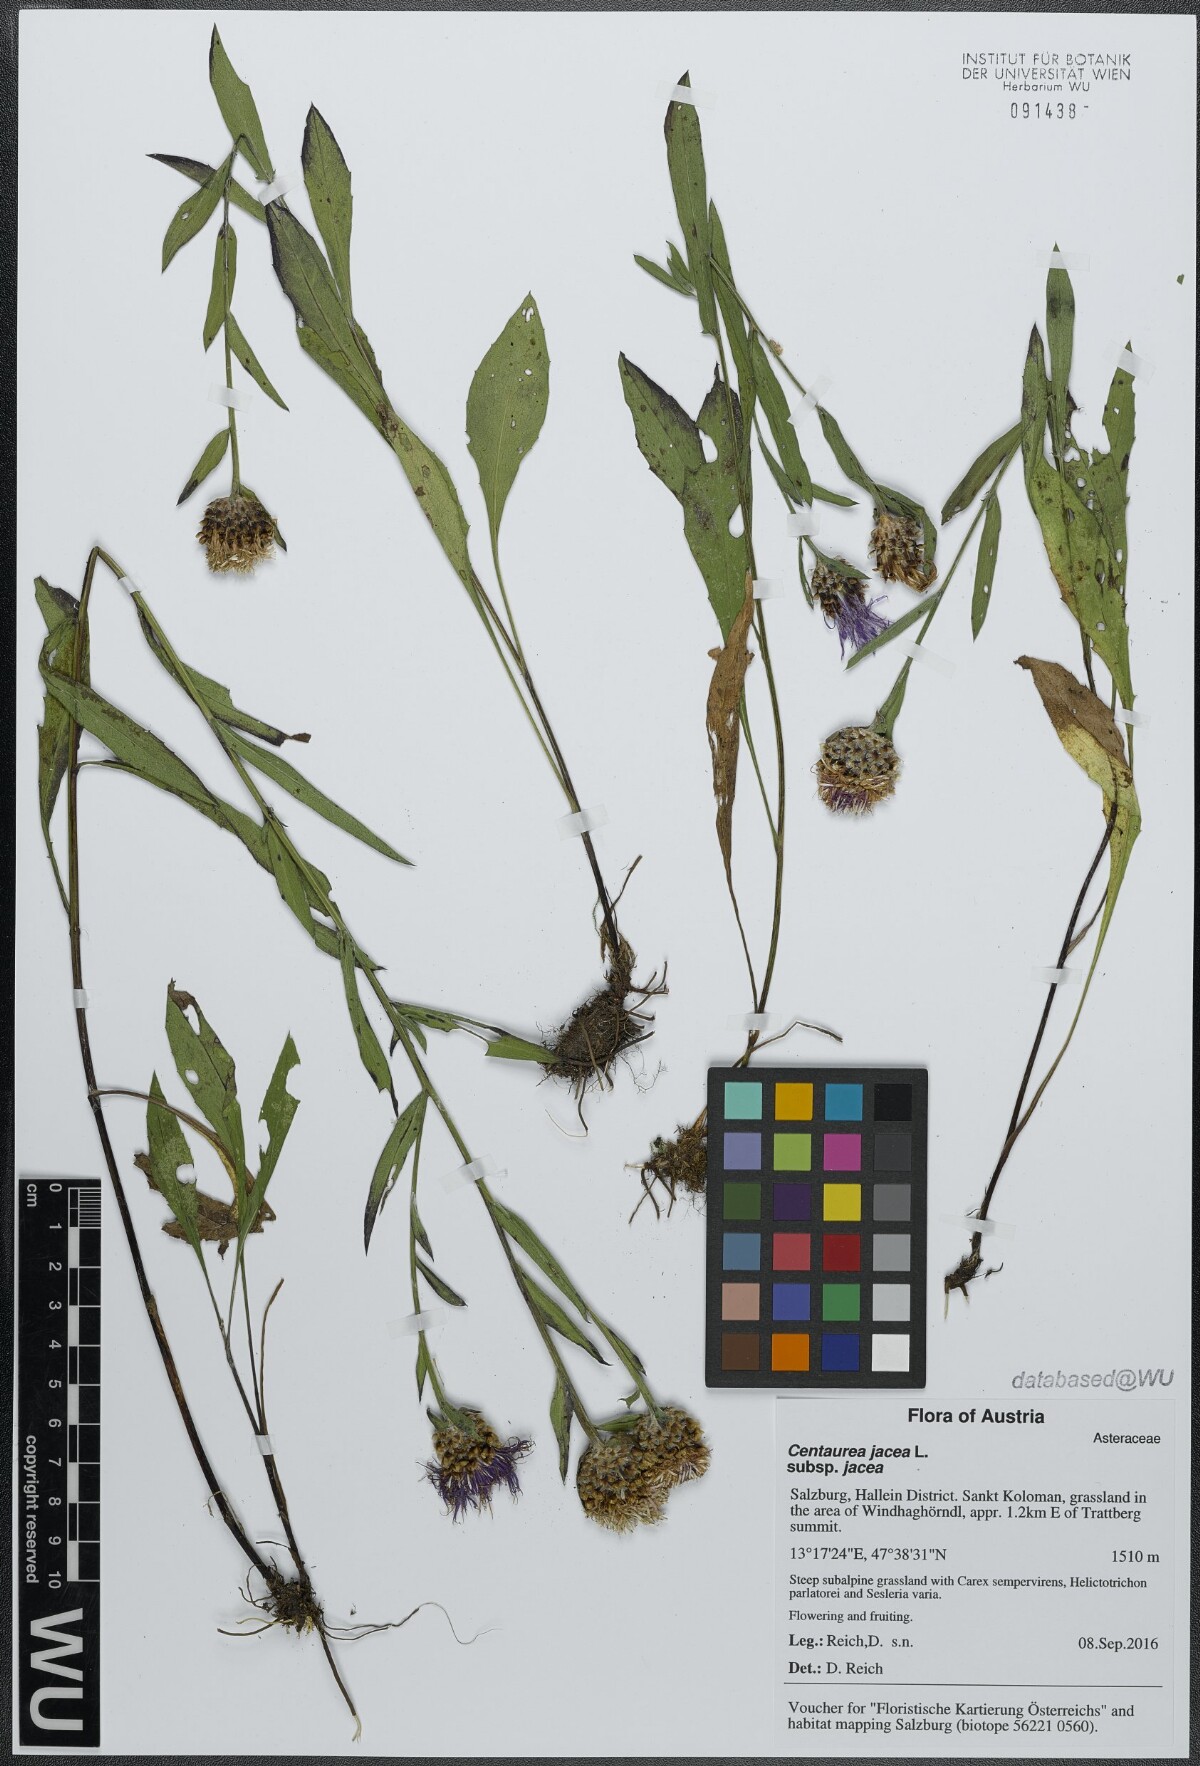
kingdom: Plantae
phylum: Tracheophyta
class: Magnoliopsida
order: Asterales
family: Asteraceae
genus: Centaurea
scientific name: Centaurea jacea
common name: Brown knapweed
